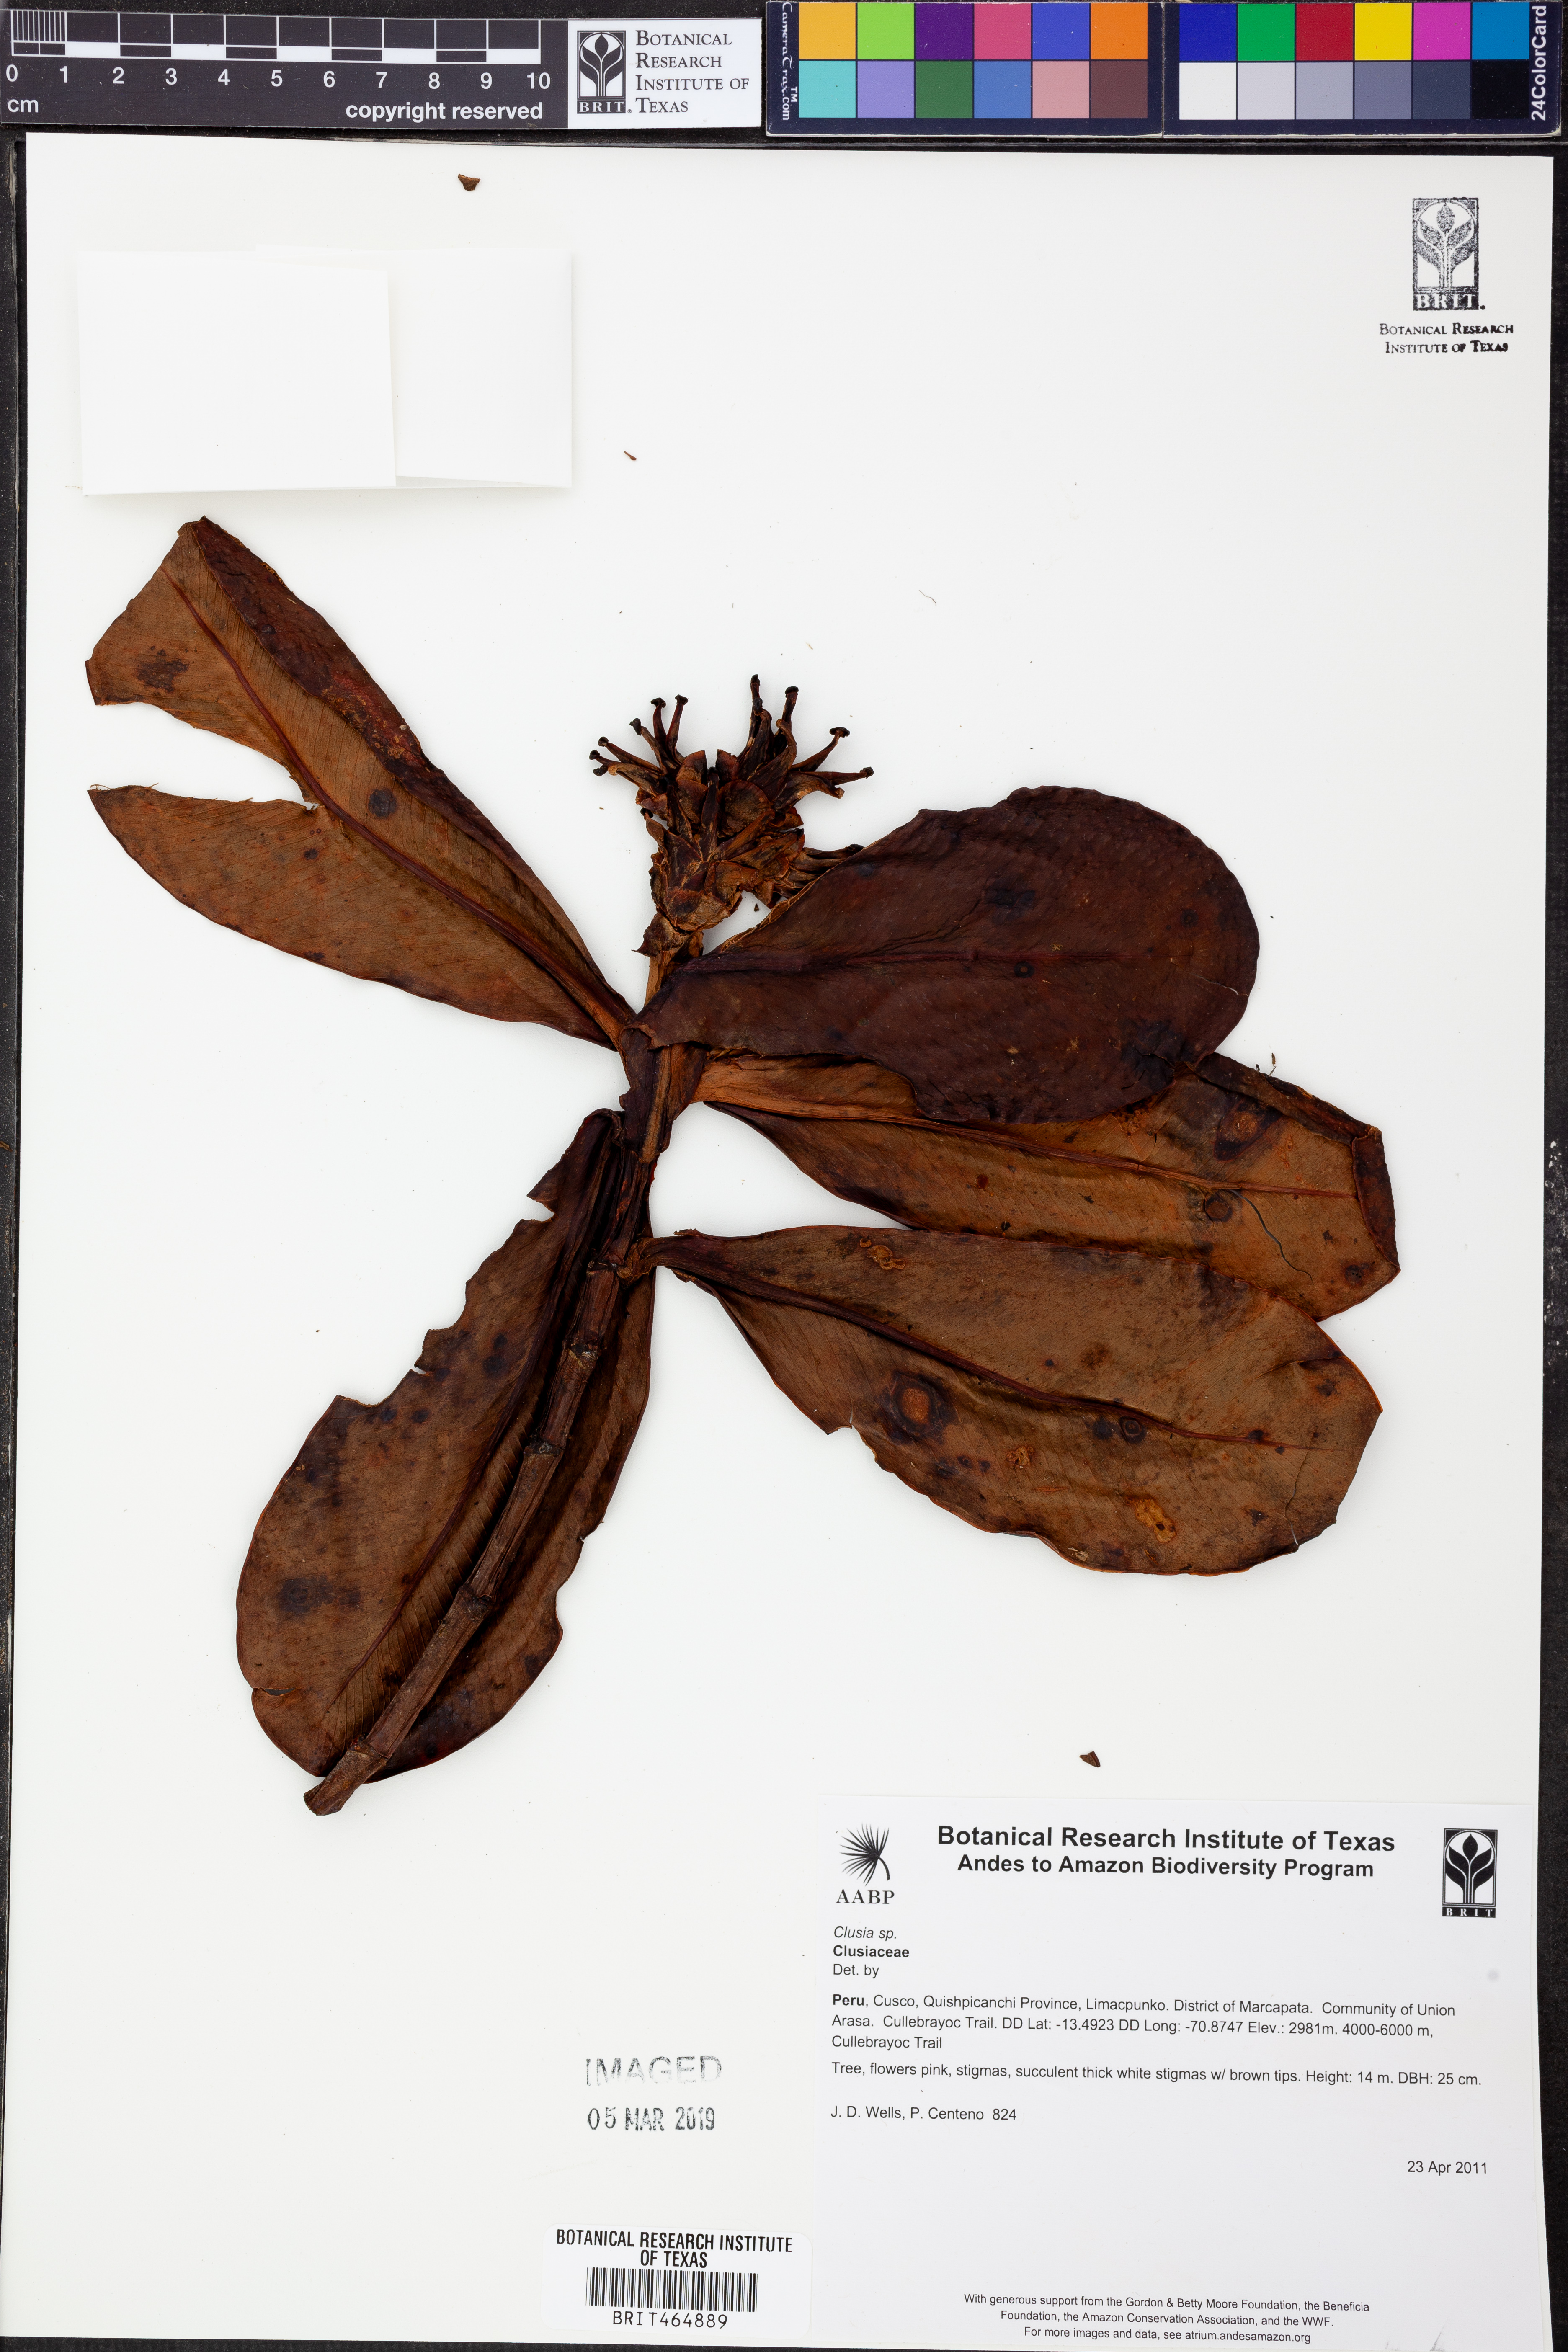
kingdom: Plantae
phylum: Tracheophyta
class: Magnoliopsida
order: Malpighiales
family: Clusiaceae
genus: Clusia
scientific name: Clusia
